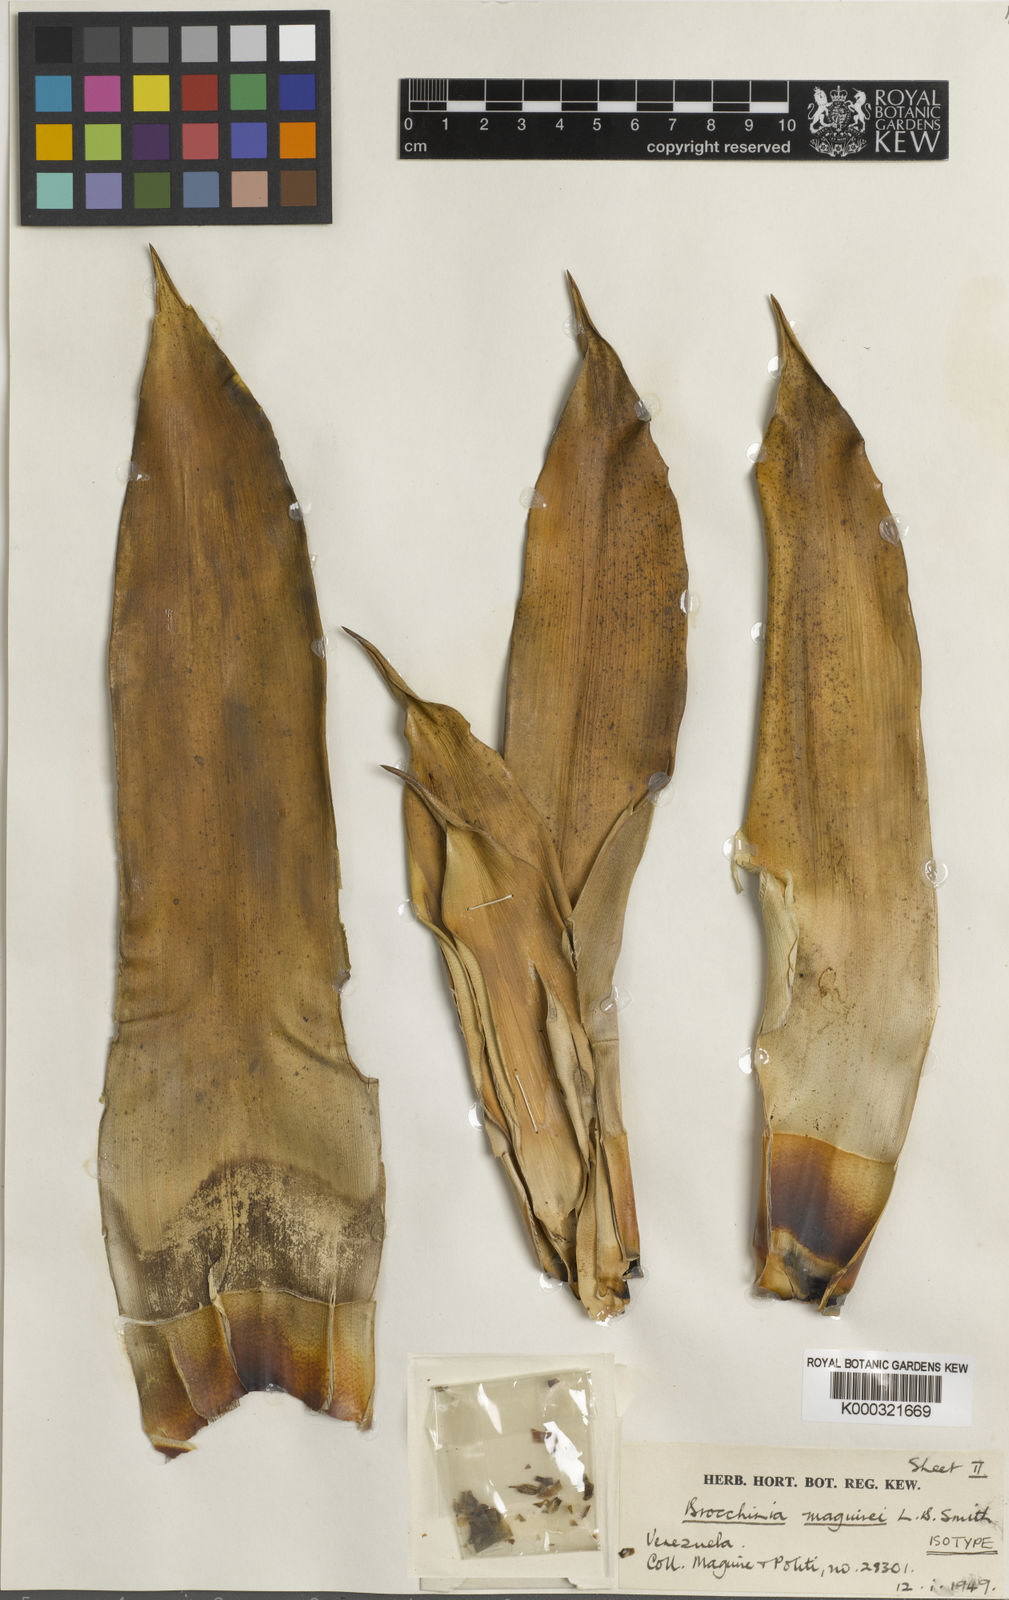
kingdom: Plantae
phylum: Tracheophyta
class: Liliopsida
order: Poales
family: Bromeliaceae
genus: Brocchinia
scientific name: Brocchinia maguirei
